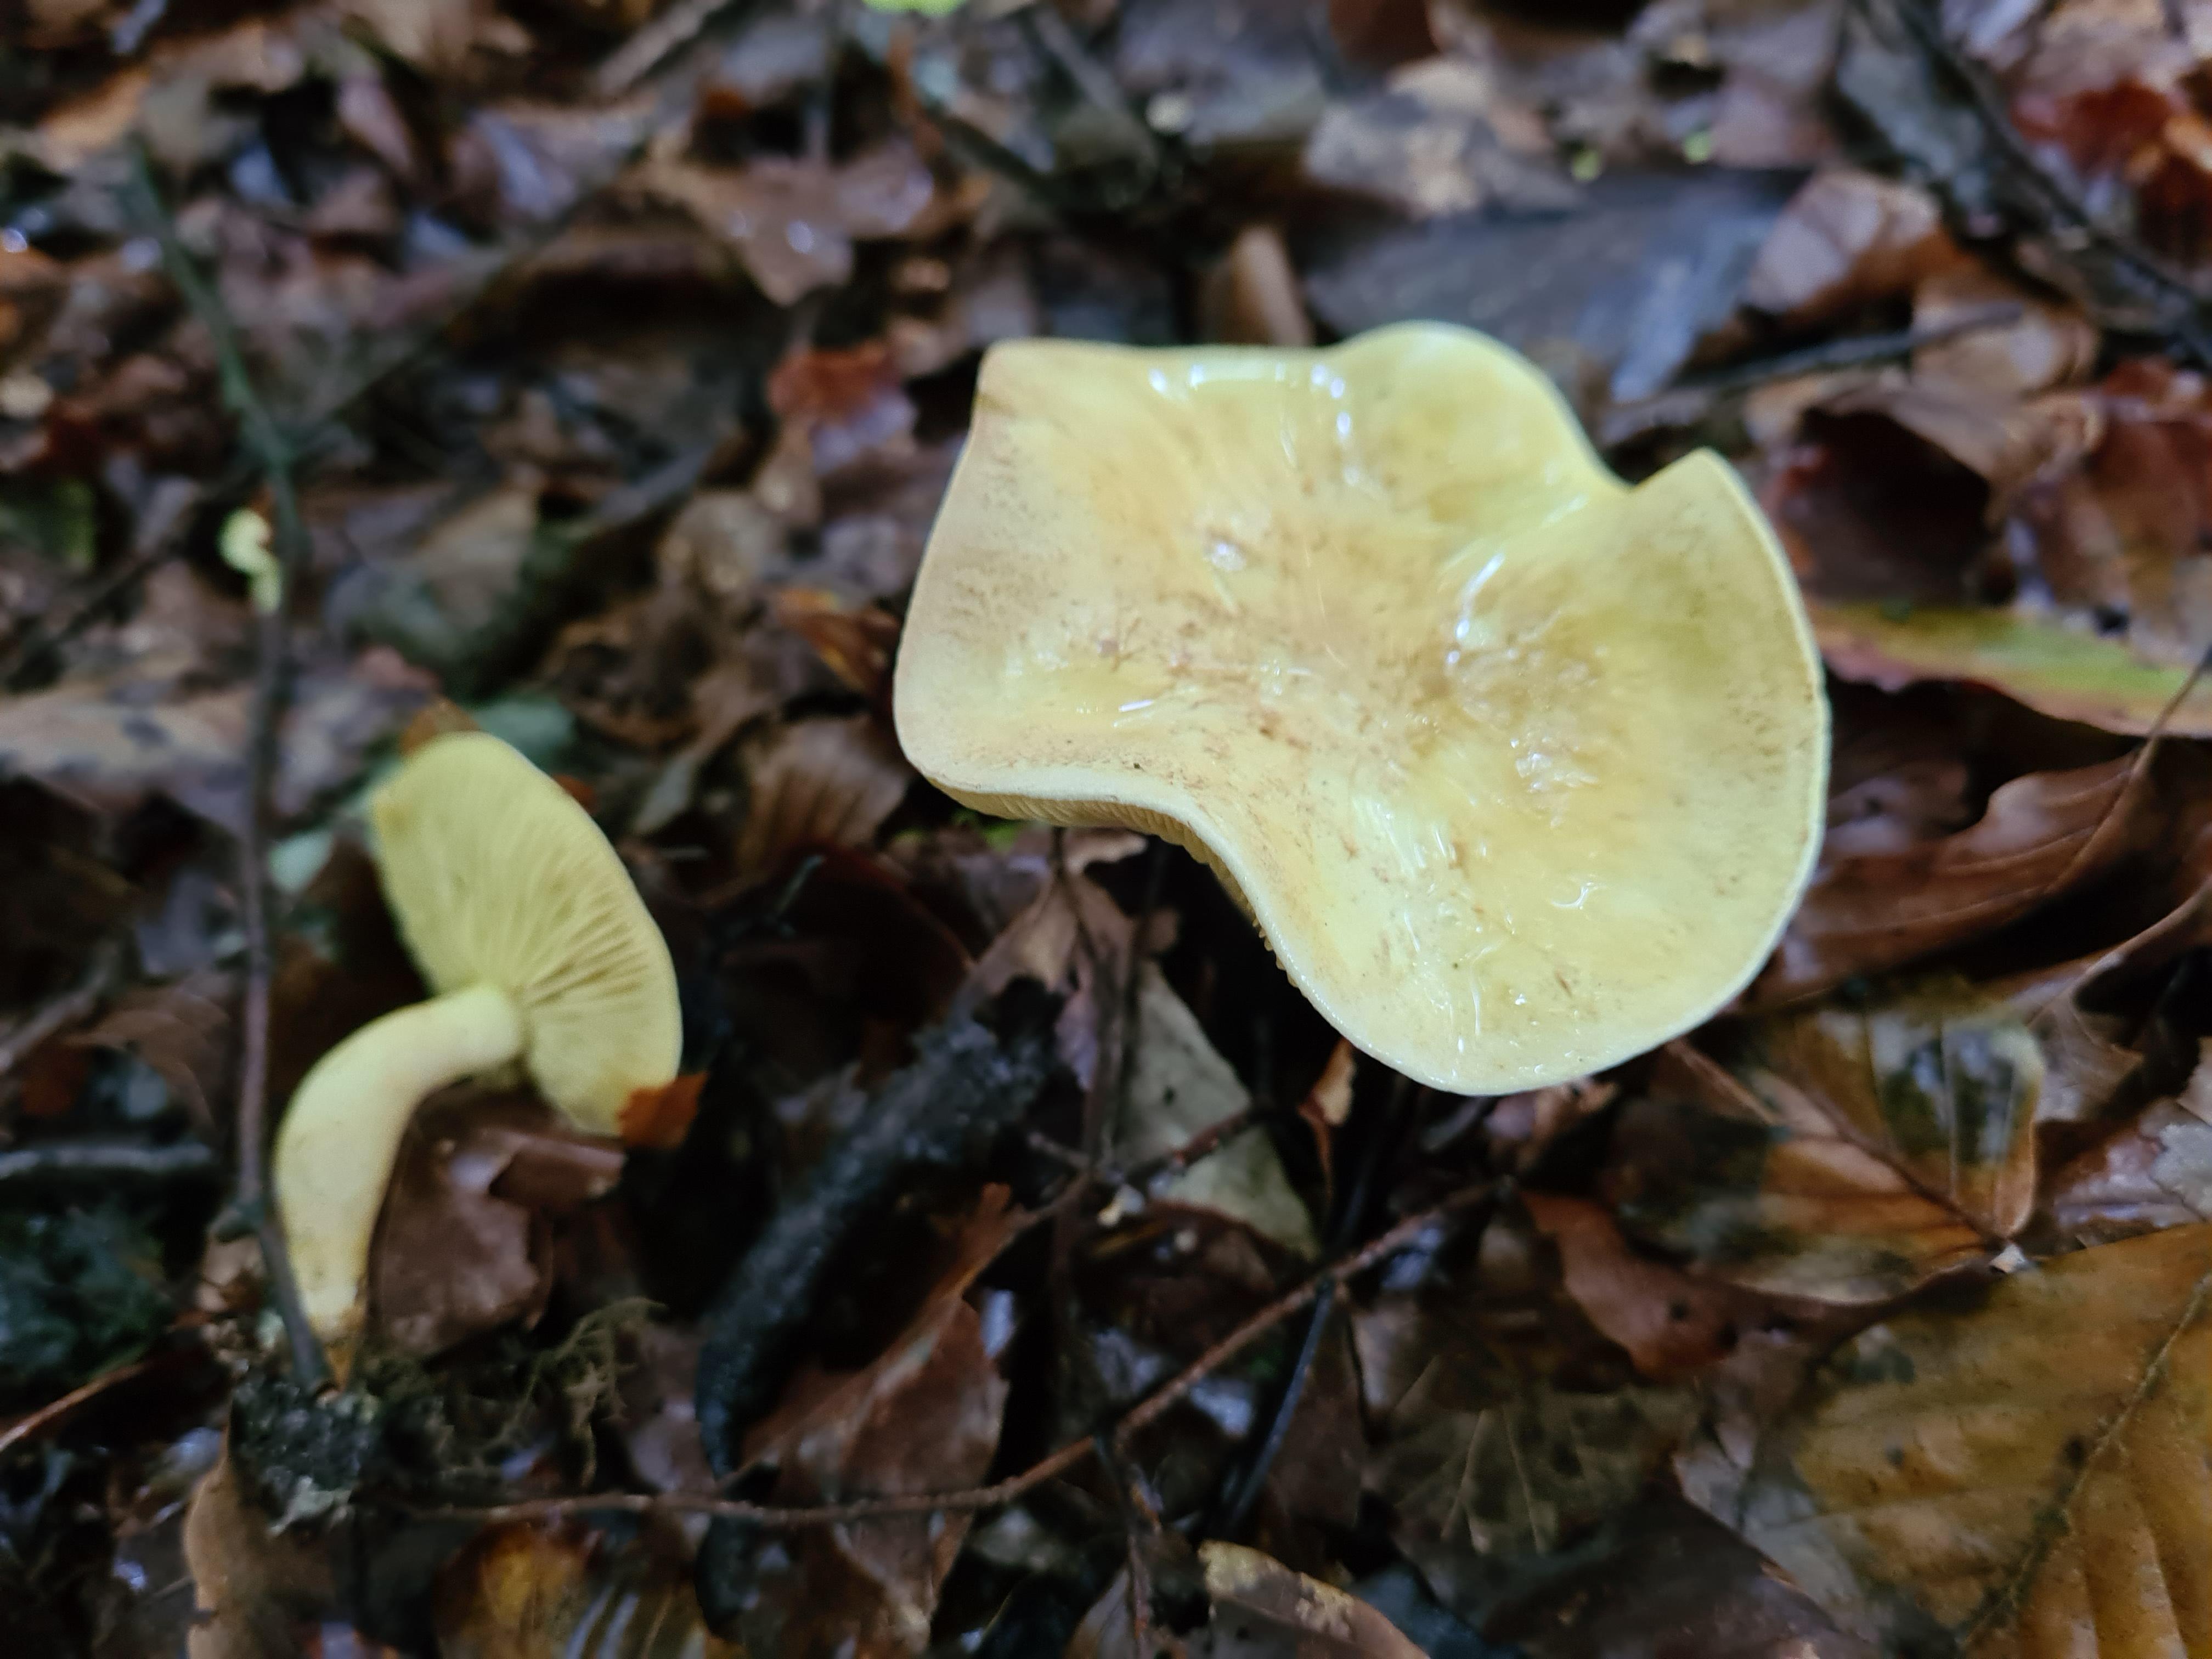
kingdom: Fungi
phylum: Basidiomycota
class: Agaricomycetes
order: Agaricales
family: Tricholomataceae
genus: Tricholoma
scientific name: Tricholoma sulphureum
